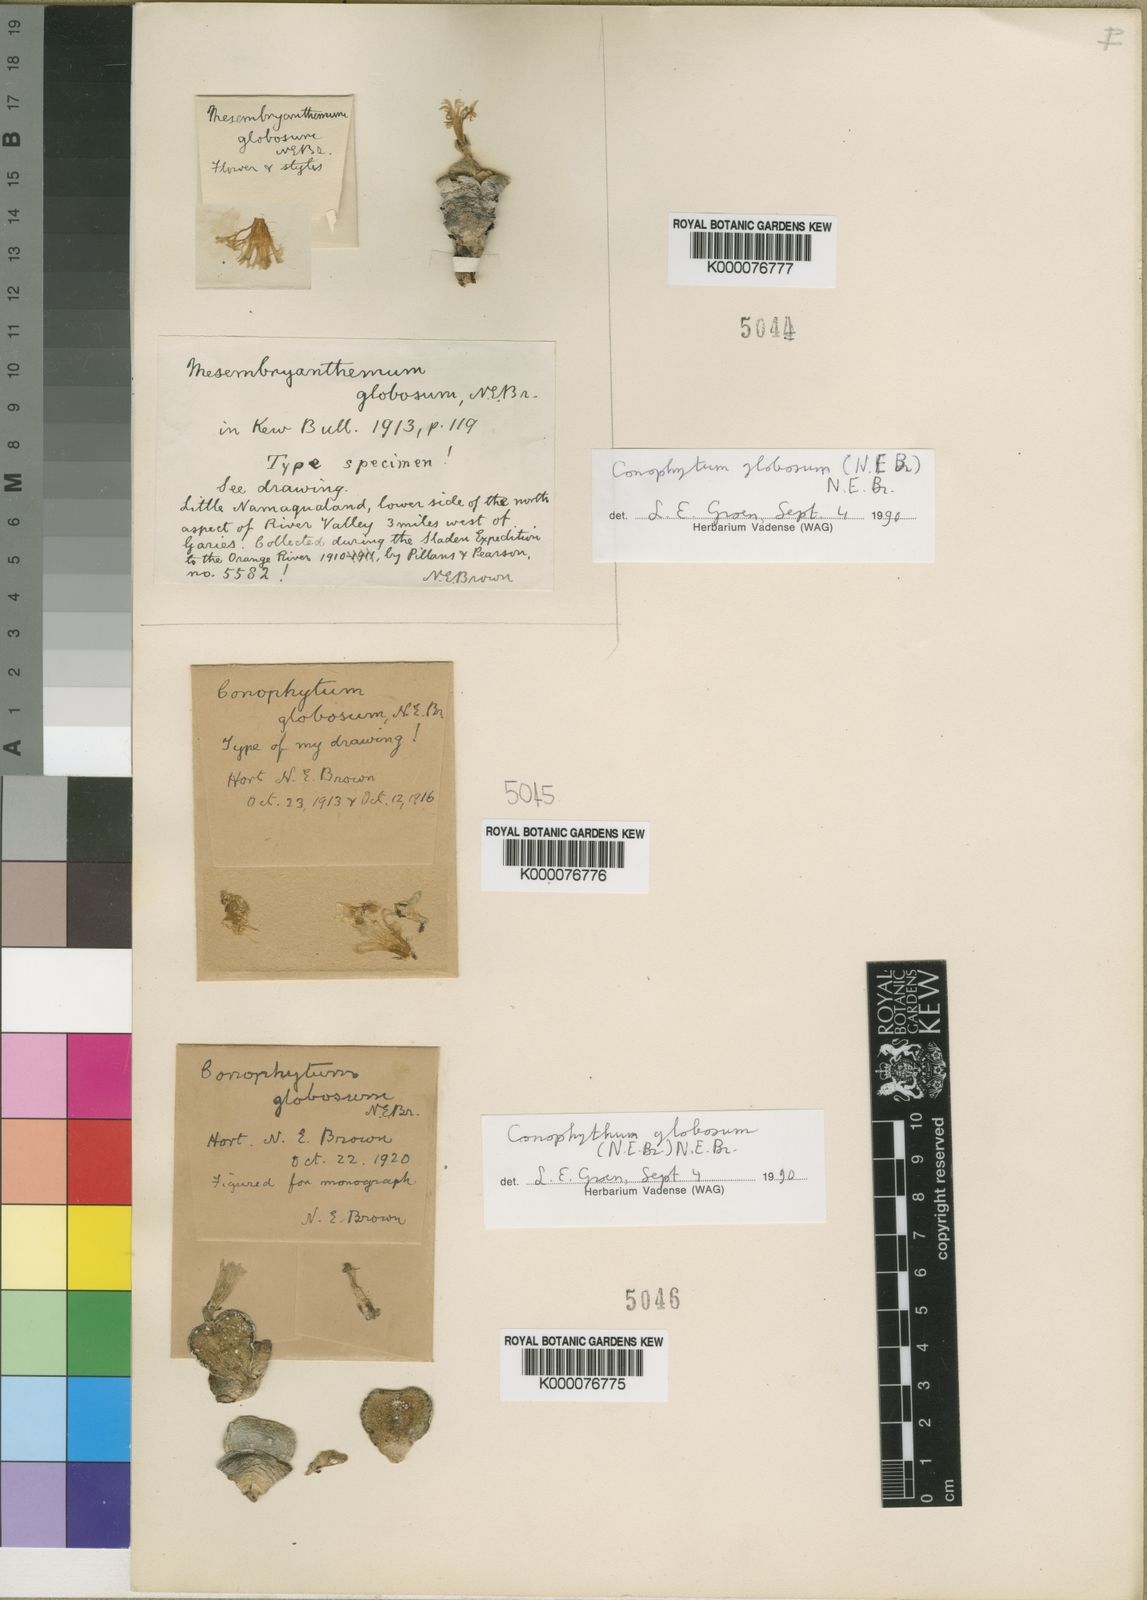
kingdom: Plantae
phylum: Tracheophyta
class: Magnoliopsida
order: Caryophyllales
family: Aizoaceae
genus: Conophytum
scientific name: Conophytum globosum
